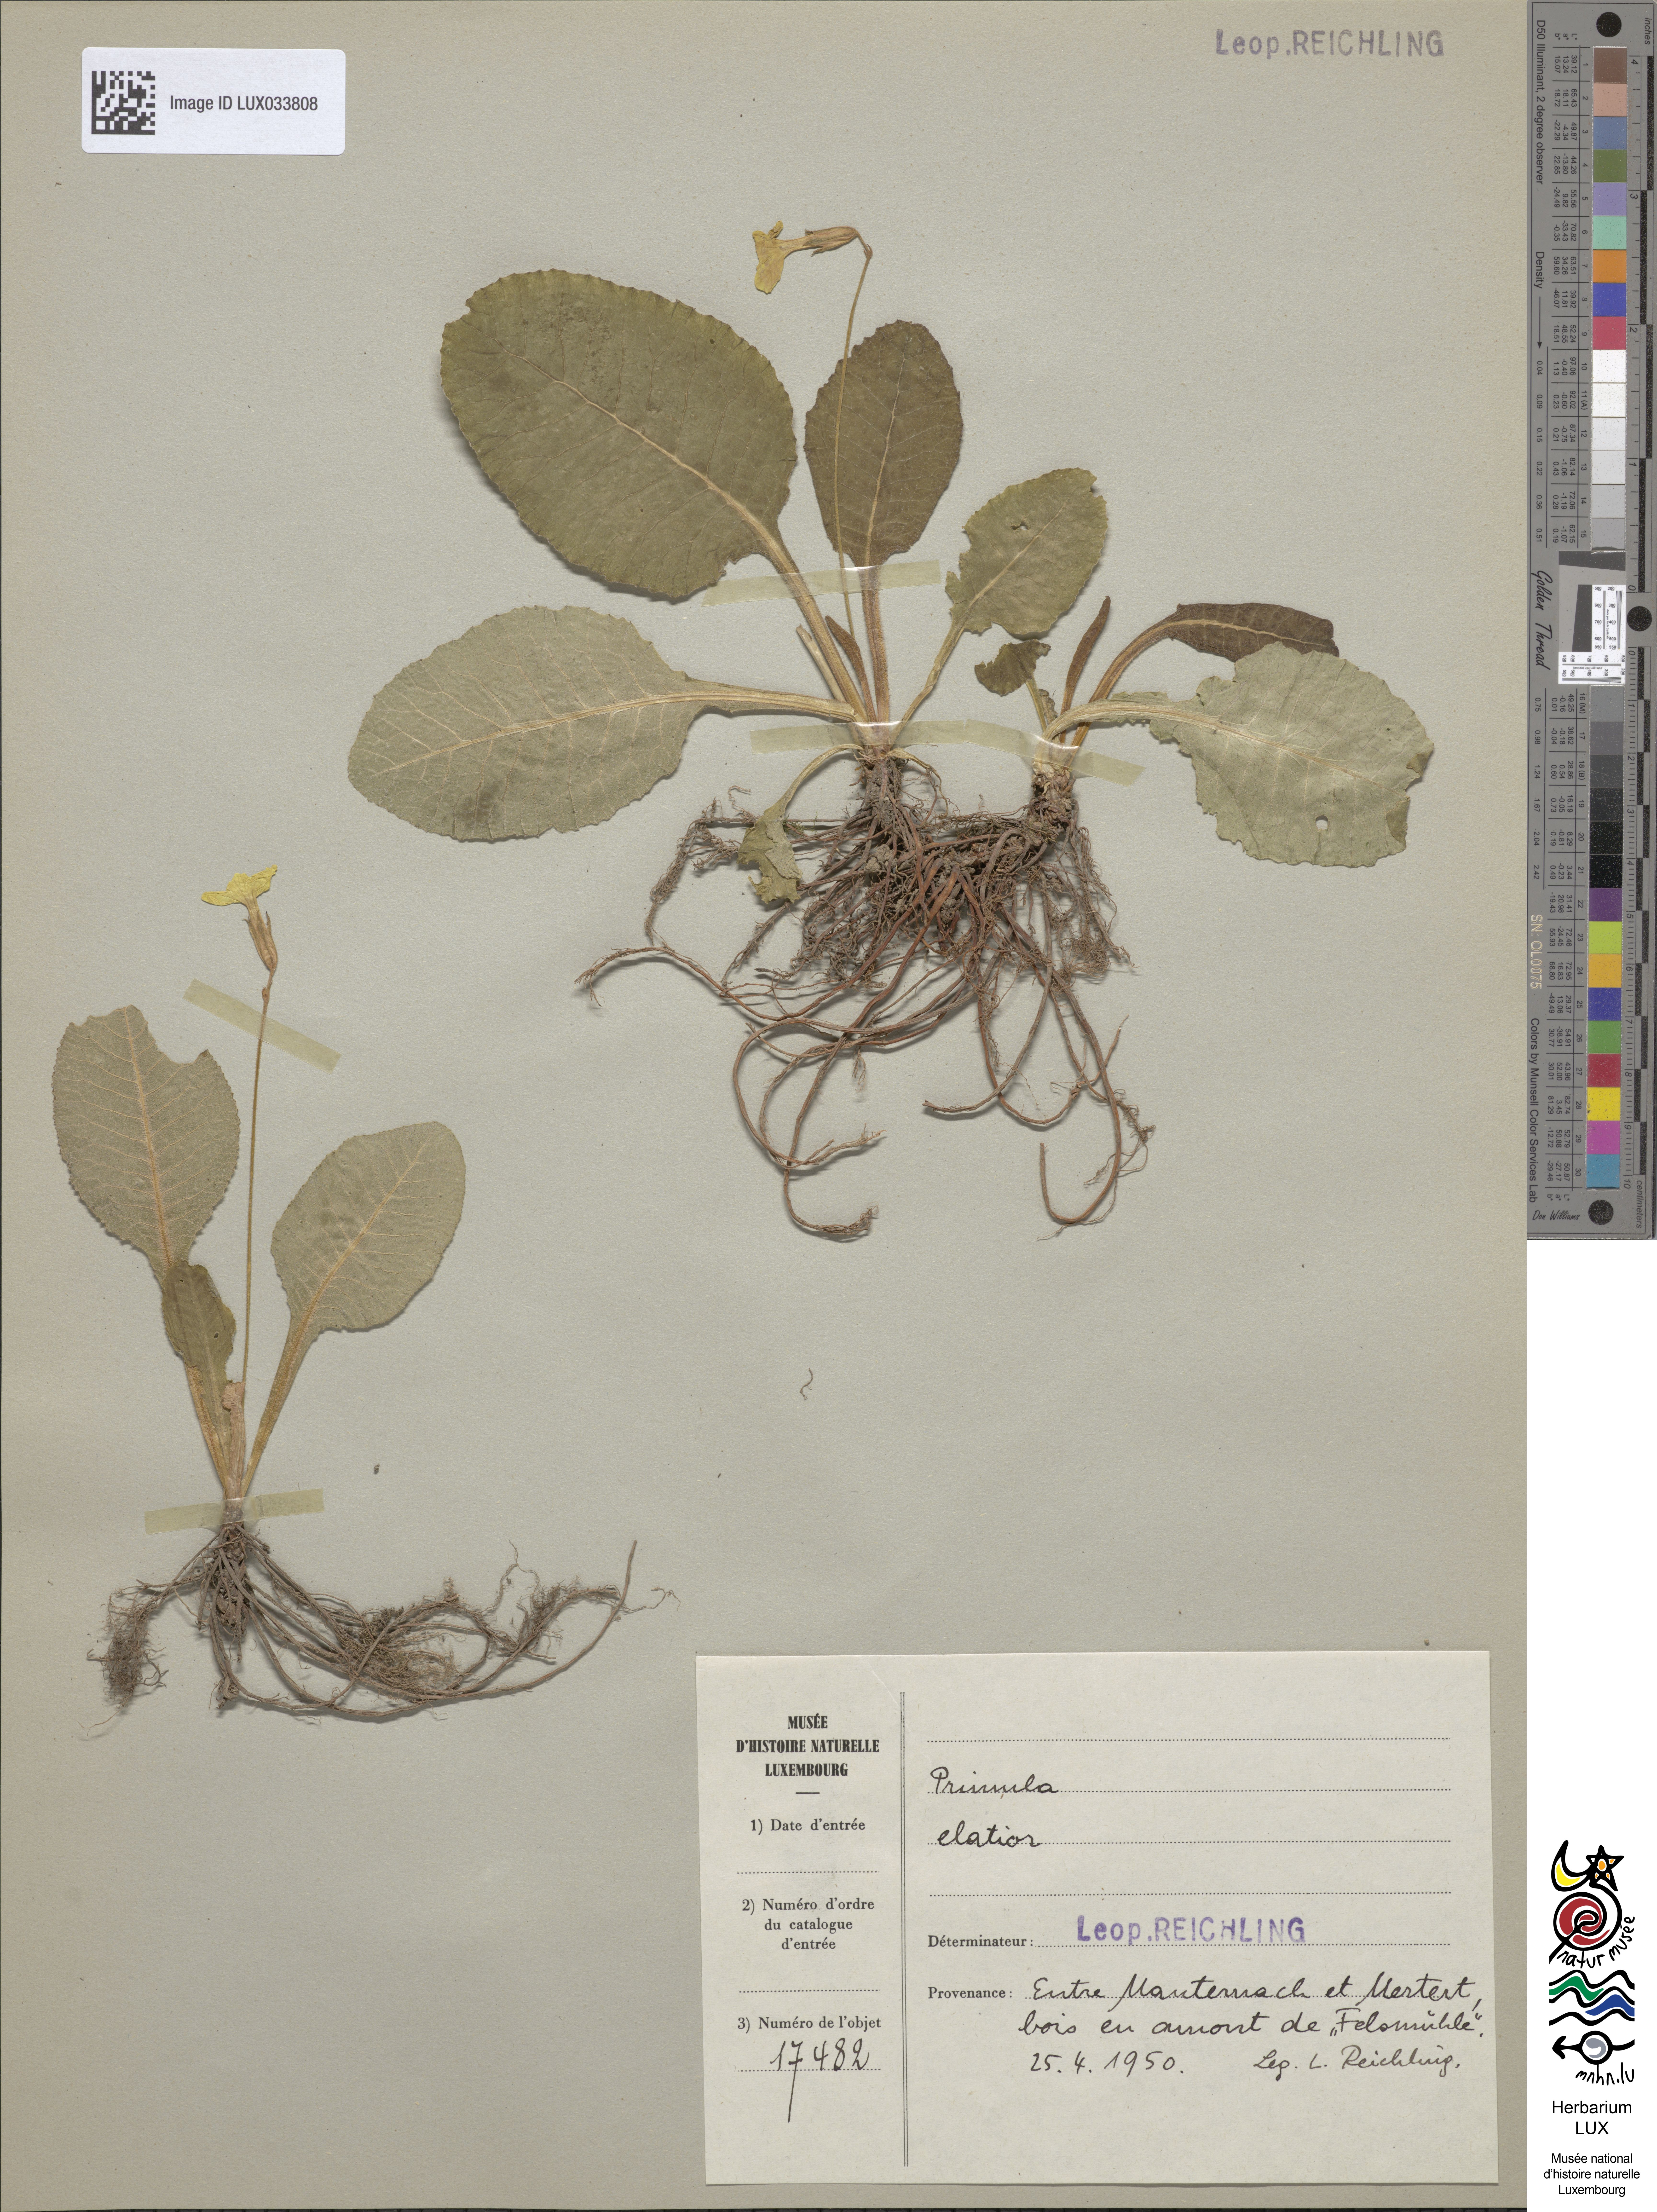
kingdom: Plantae
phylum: Tracheophyta
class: Magnoliopsida
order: Ericales
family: Primulaceae
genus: Primula
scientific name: Primula elatior
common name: Oxlip
